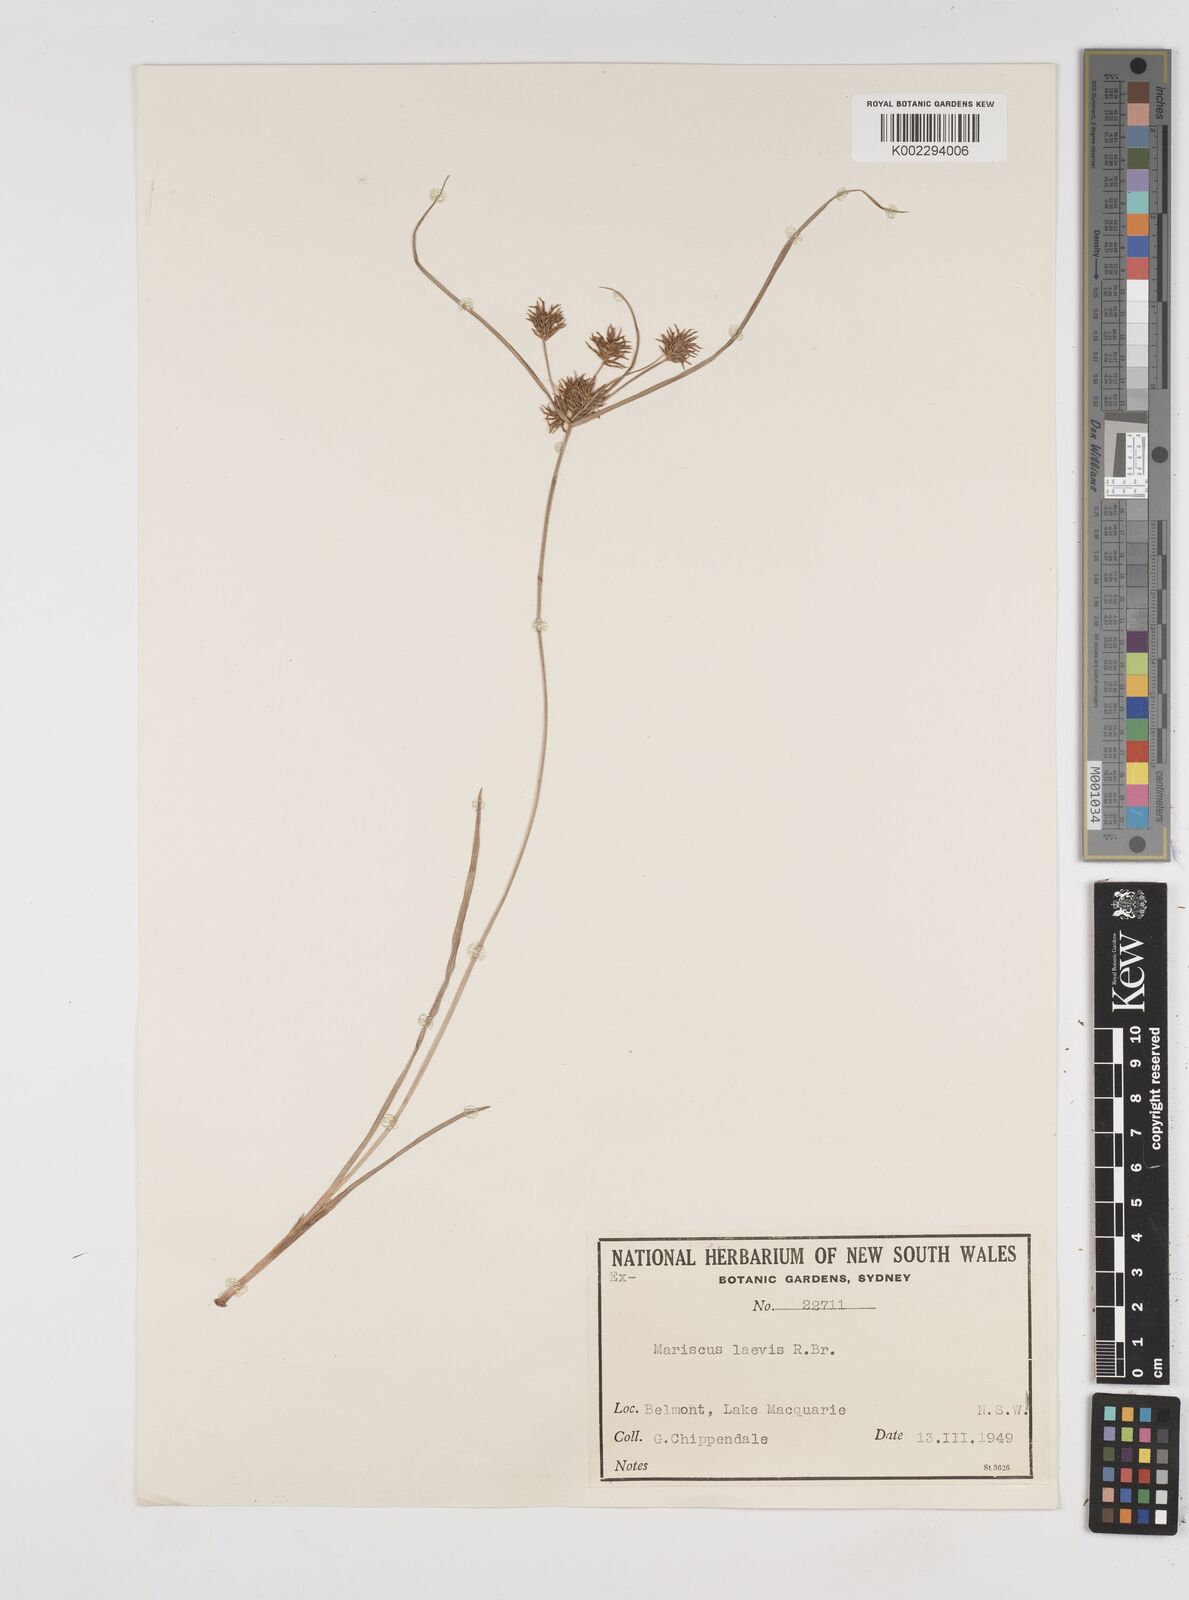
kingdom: Plantae
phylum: Tracheophyta
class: Liliopsida
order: Poales
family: Cyperaceae
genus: Cyperus
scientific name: Cyperus leiocaulon
